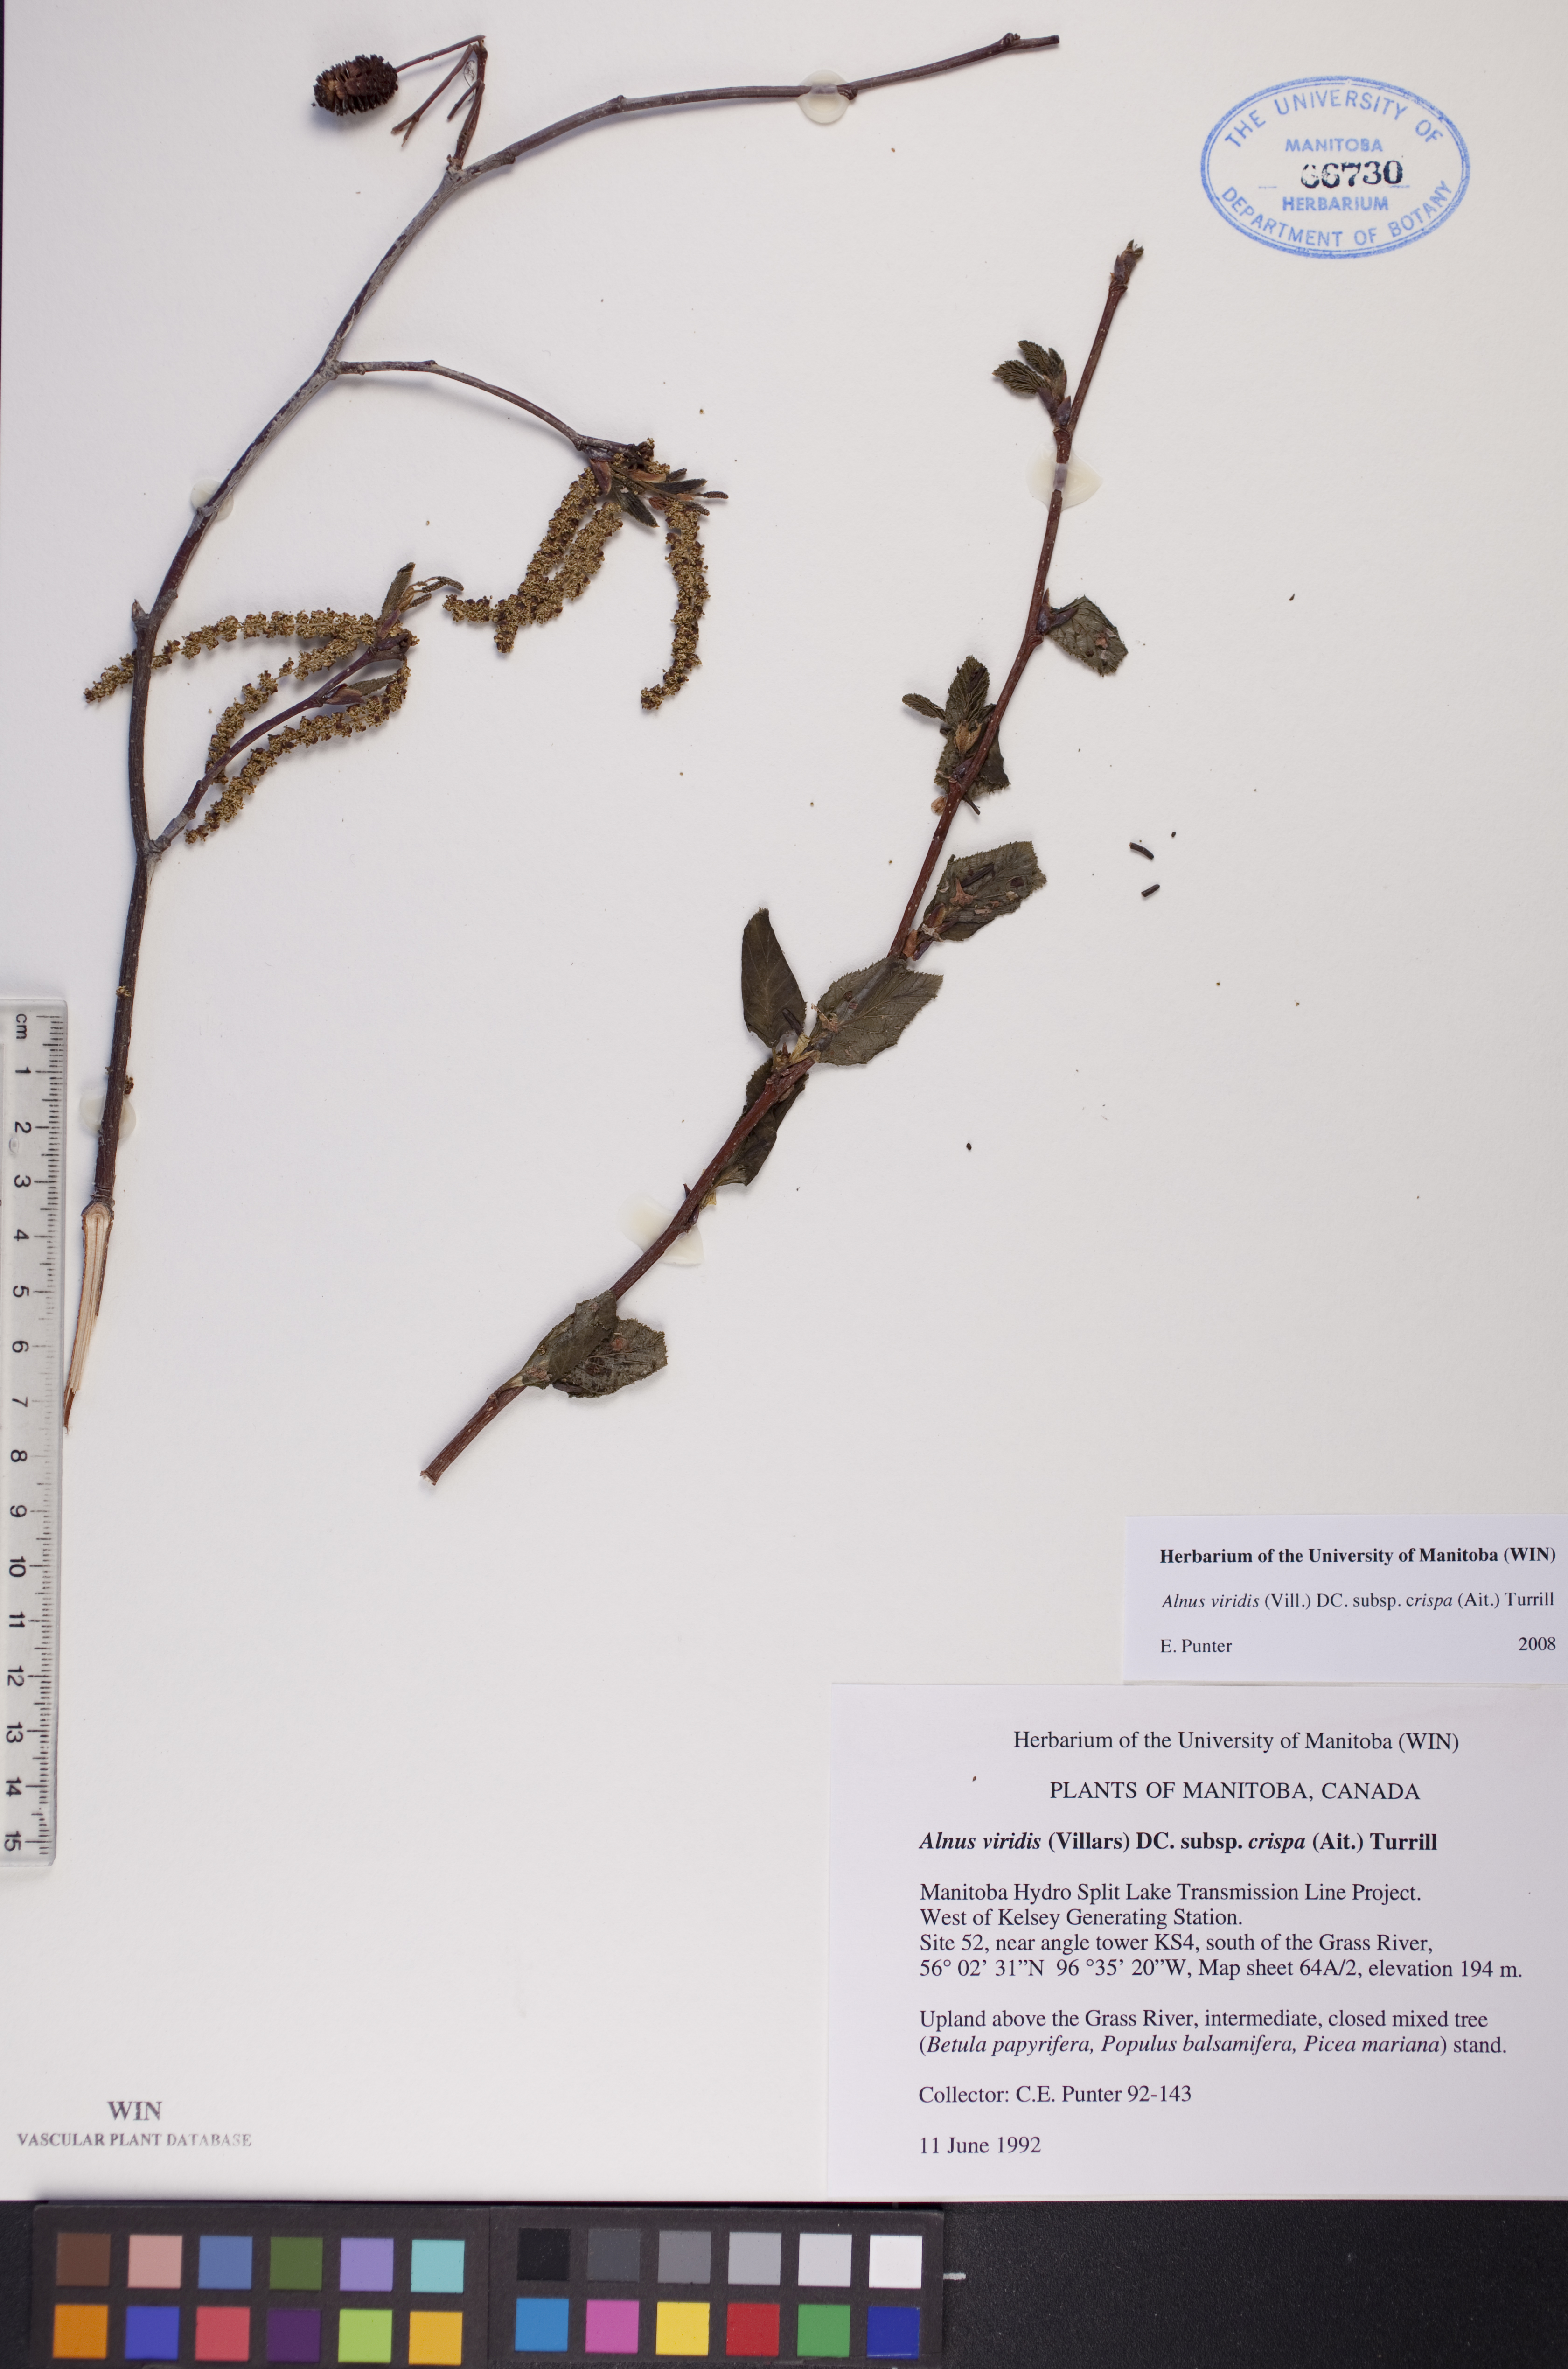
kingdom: Plantae
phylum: Tracheophyta
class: Magnoliopsida
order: Fagales
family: Betulaceae
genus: Alnus
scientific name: Alnus alnobetula
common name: Green alder
